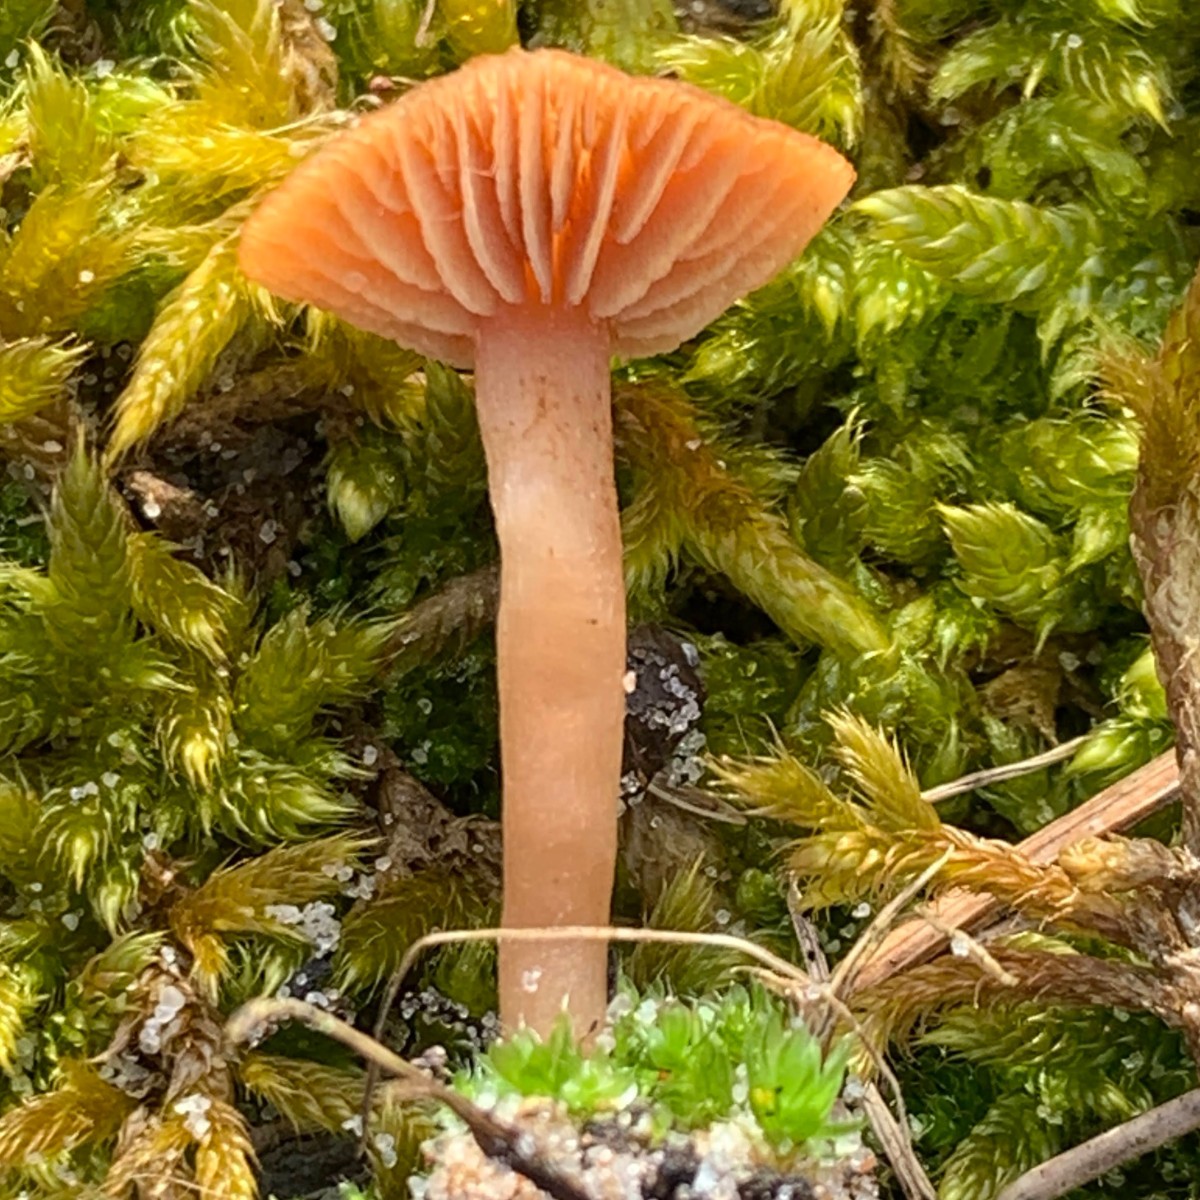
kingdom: Fungi
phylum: Basidiomycota
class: Agaricomycetes
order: Agaricales
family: Tubariaceae
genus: Tubaria
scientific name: Tubaria furfuracea
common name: kliddet fnughat
